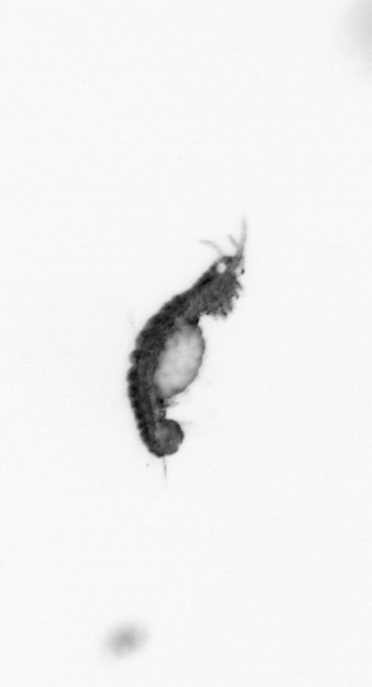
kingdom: Animalia
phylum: Annelida
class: Polychaeta
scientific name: Polychaeta
